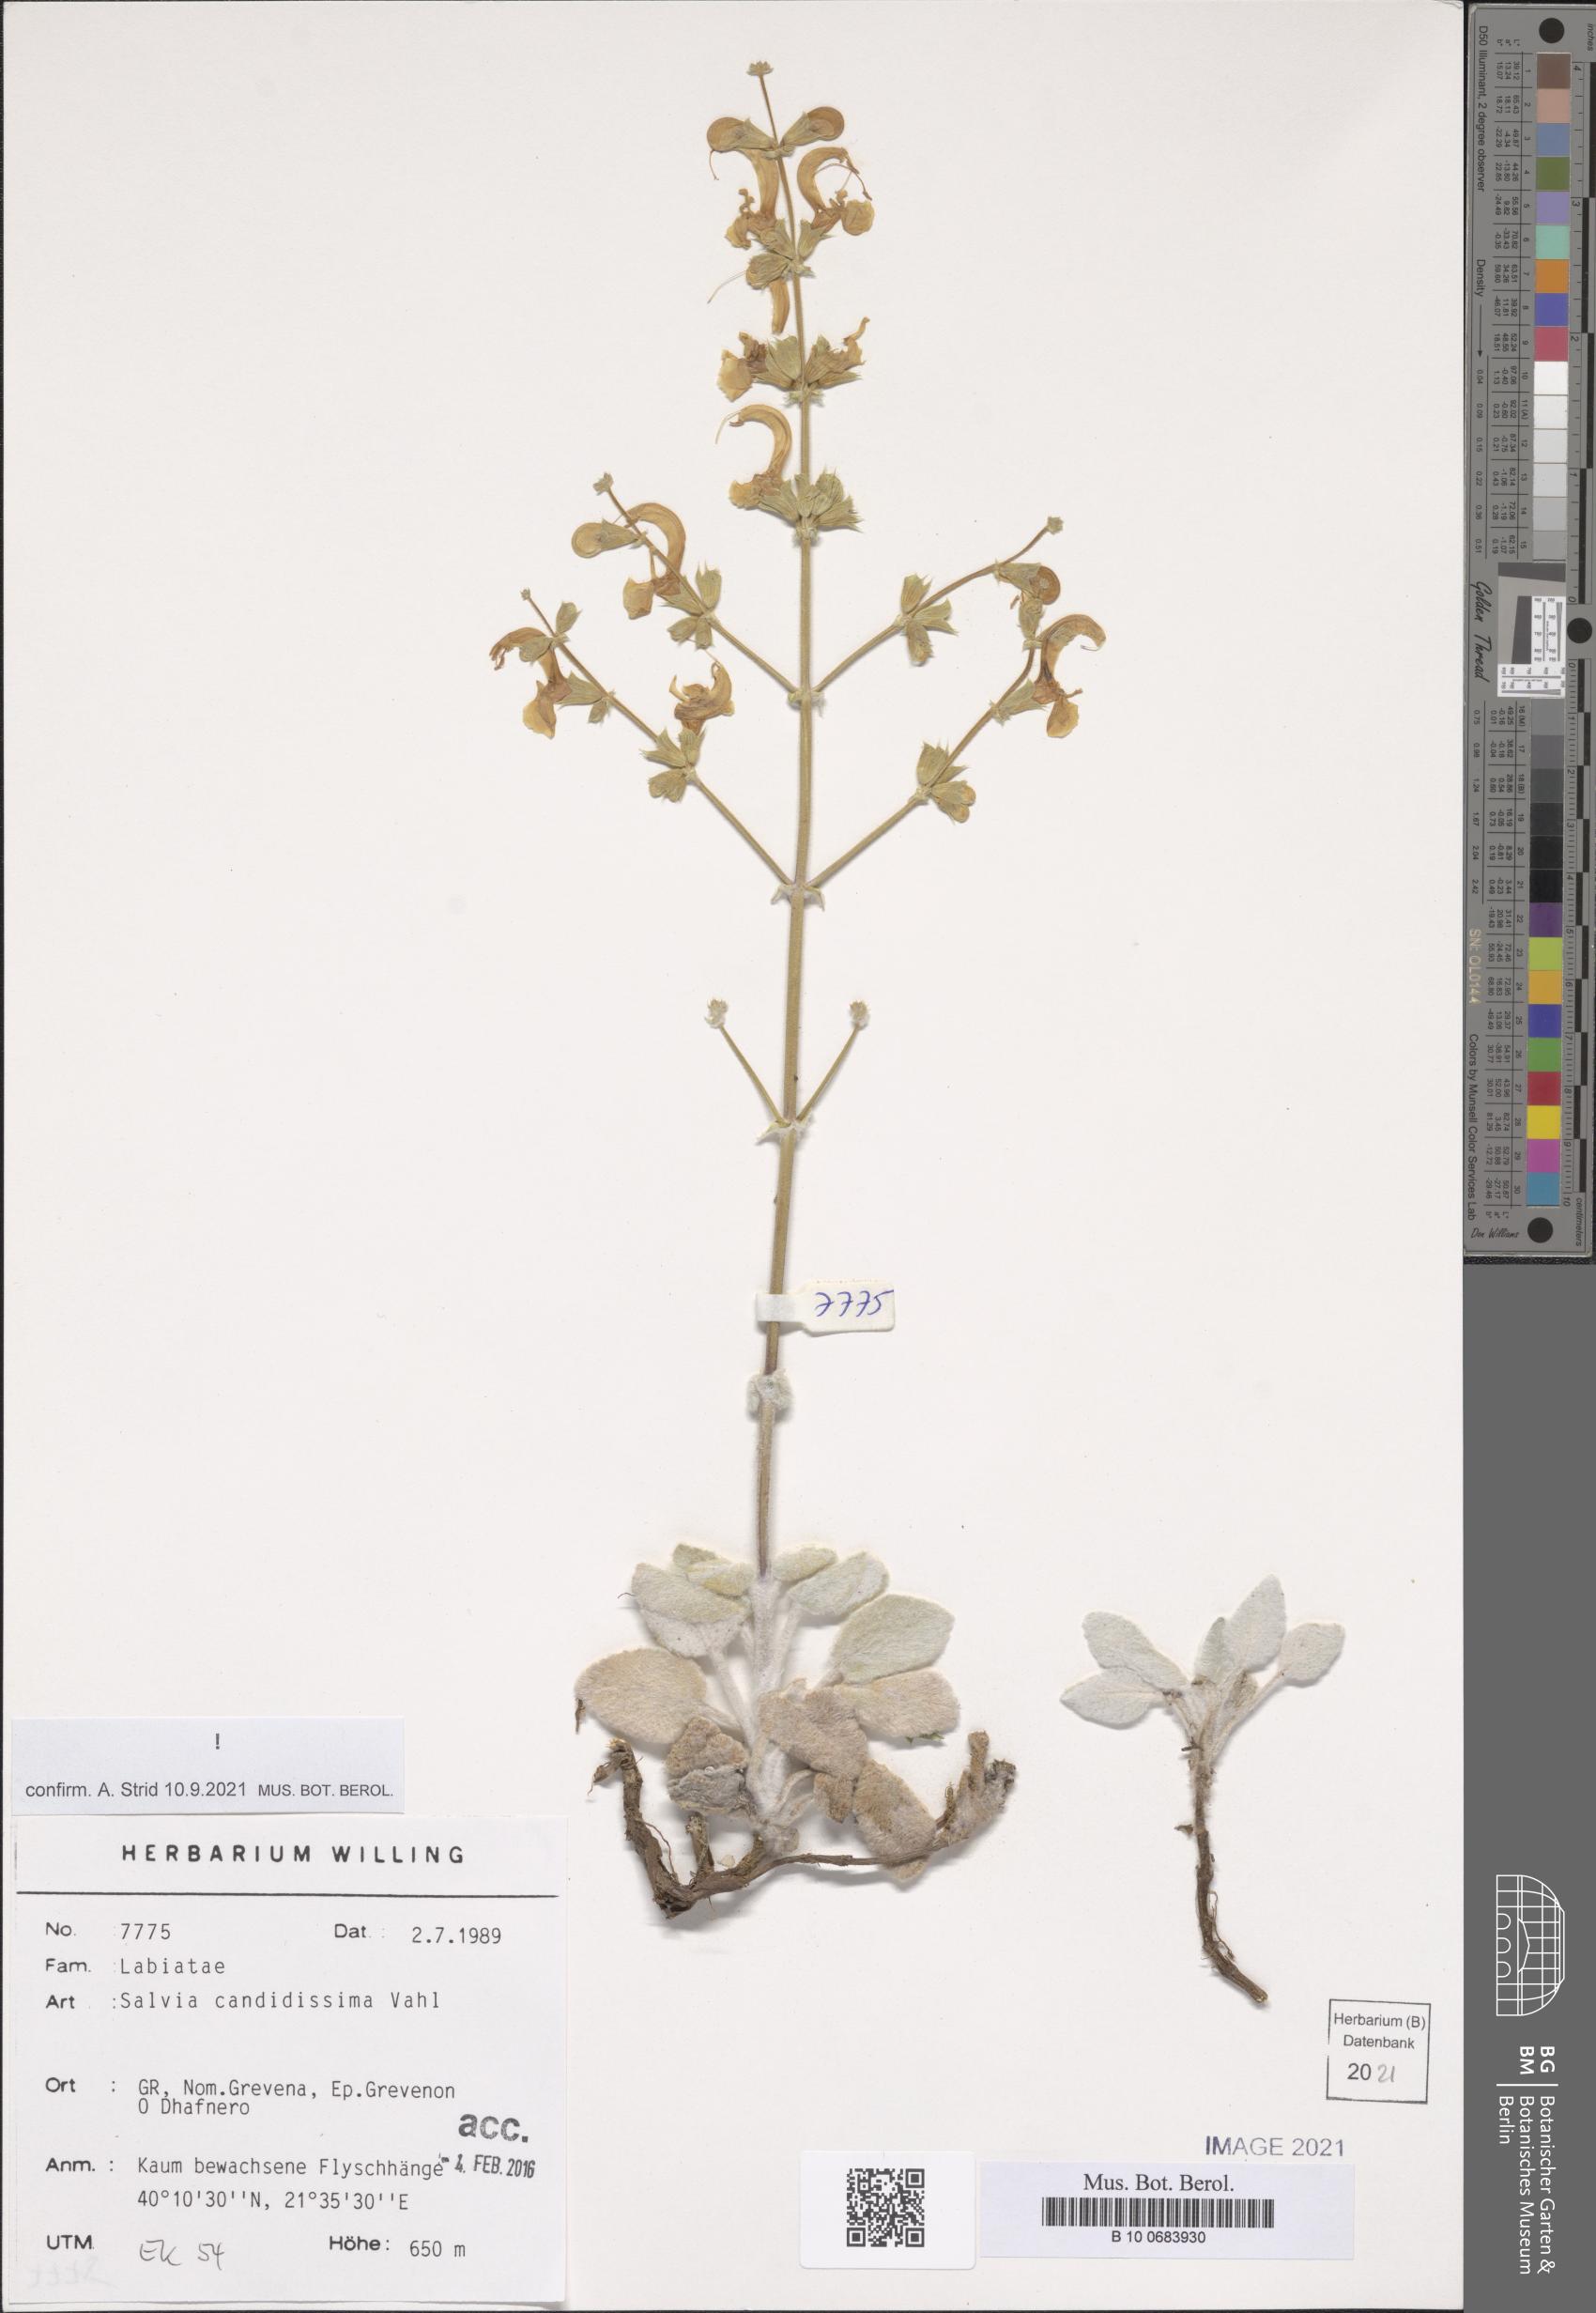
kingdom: Plantae
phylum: Tracheophyta
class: Magnoliopsida
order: Lamiales
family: Lamiaceae
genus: Salvia
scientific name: Salvia candidissima
